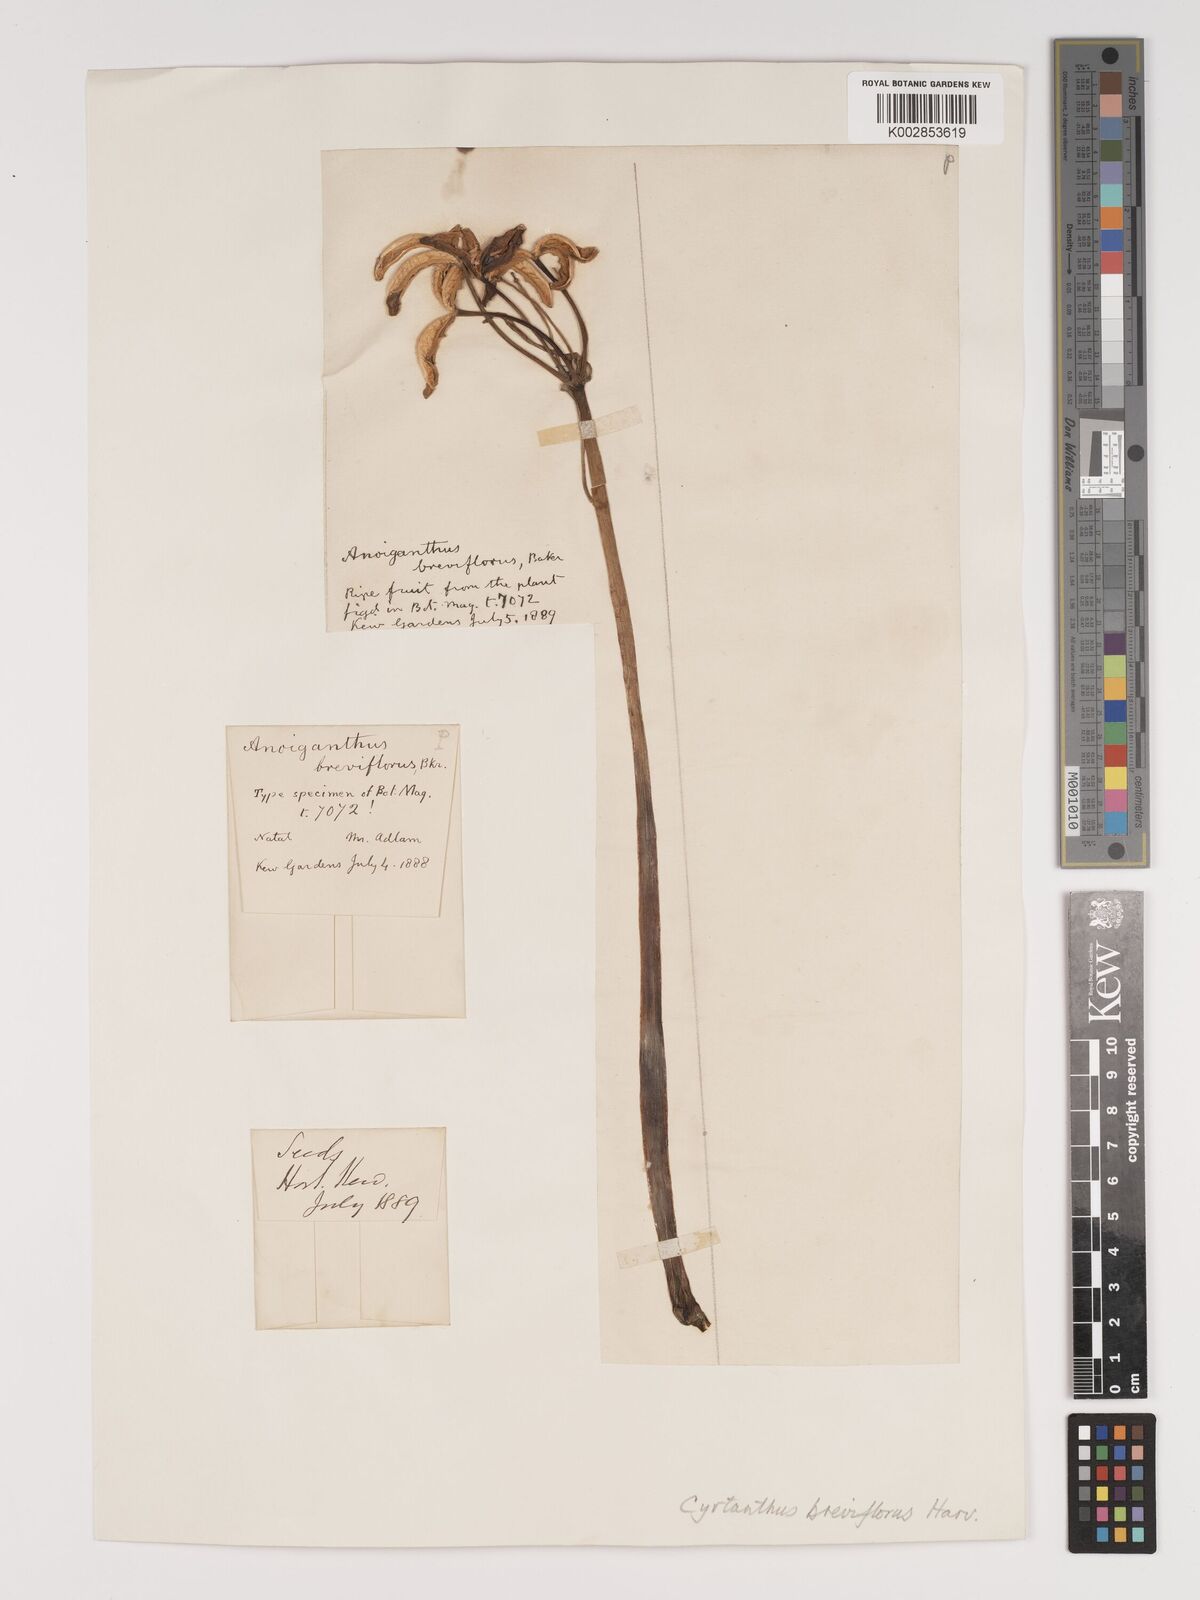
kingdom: Plantae
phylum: Tracheophyta
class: Liliopsida
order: Asparagales
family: Amaryllidaceae
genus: Cyrtanthus
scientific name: Cyrtanthus breviflorus
